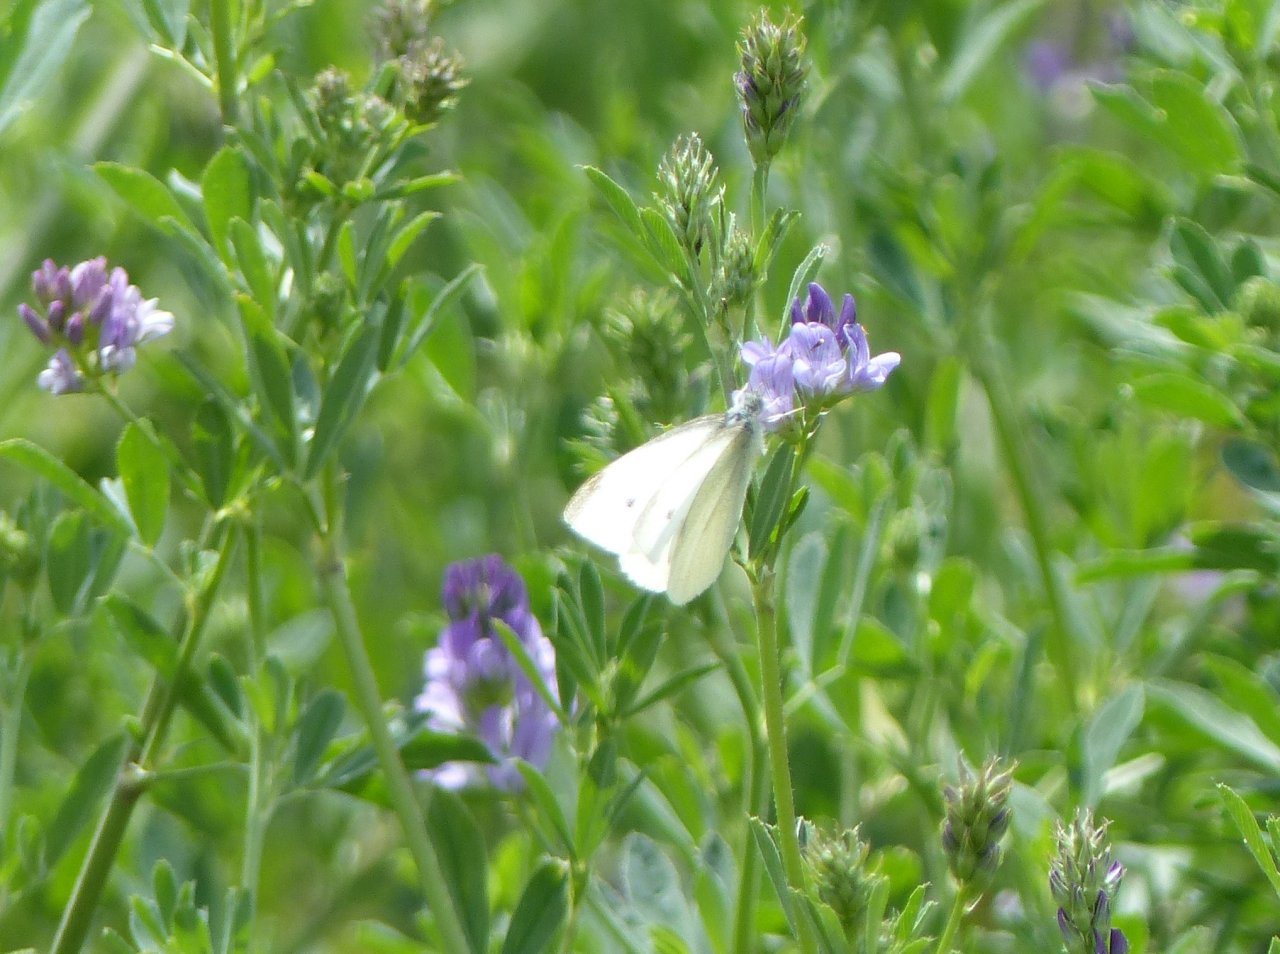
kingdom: Animalia
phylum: Arthropoda
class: Insecta
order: Lepidoptera
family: Pieridae
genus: Pieris
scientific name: Pieris rapae
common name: Cabbage White
